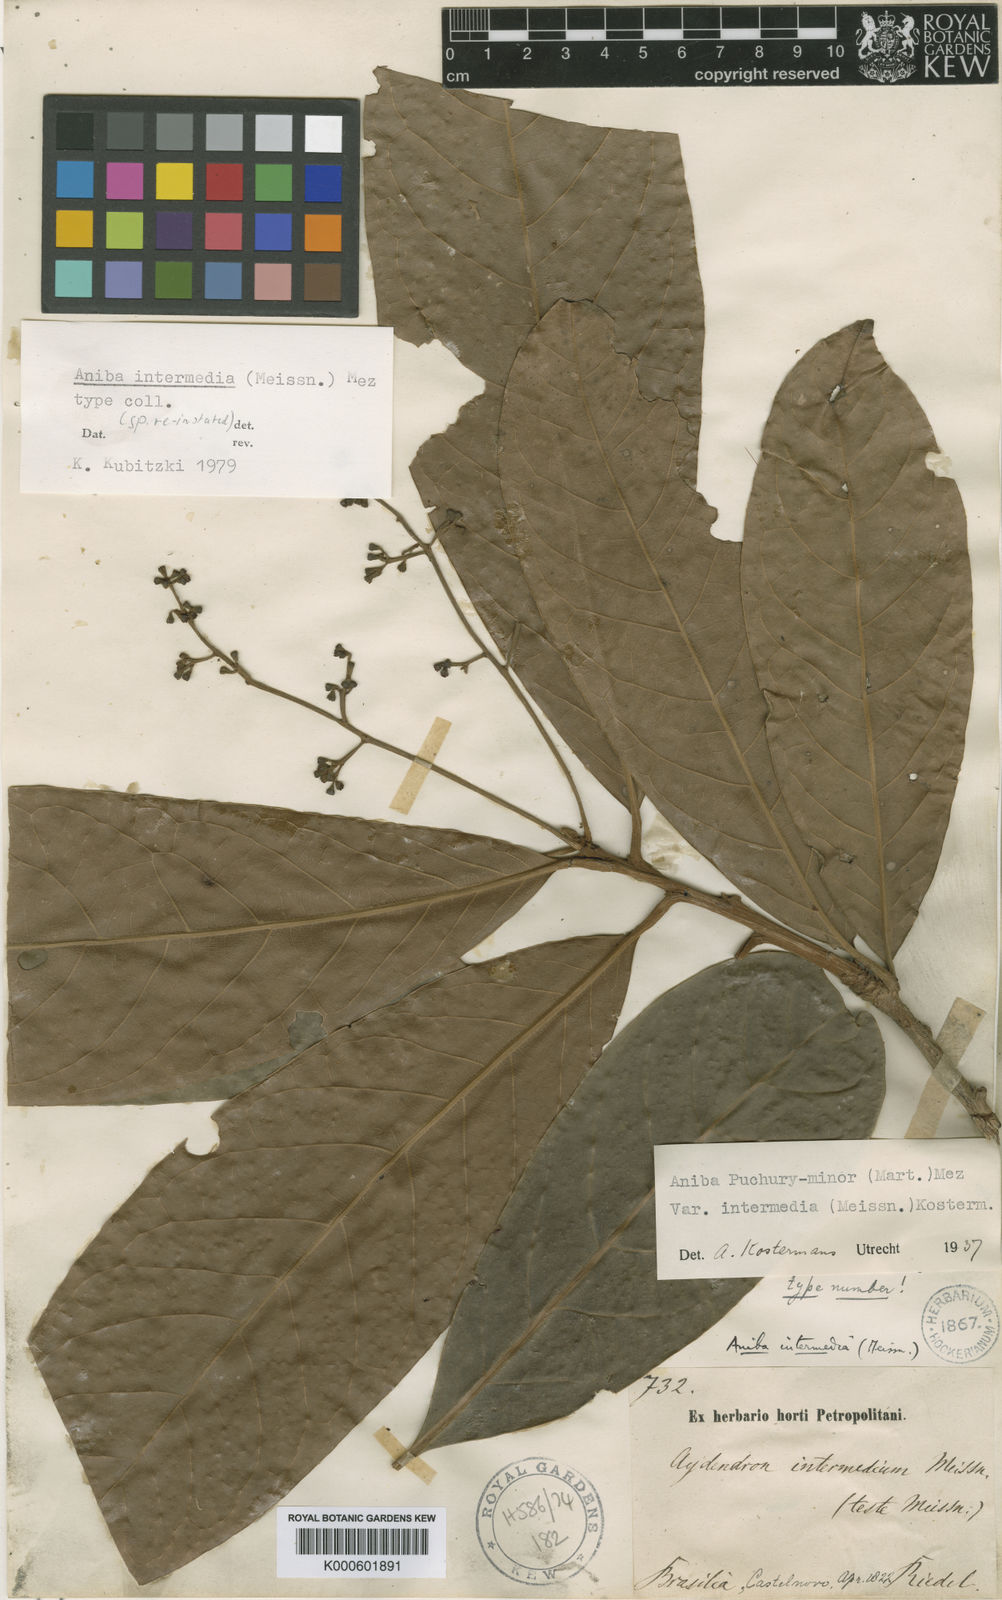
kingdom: Plantae
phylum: Tracheophyta
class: Magnoliopsida
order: Laurales
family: Lauraceae
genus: Aniba
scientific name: Aniba intermedia
